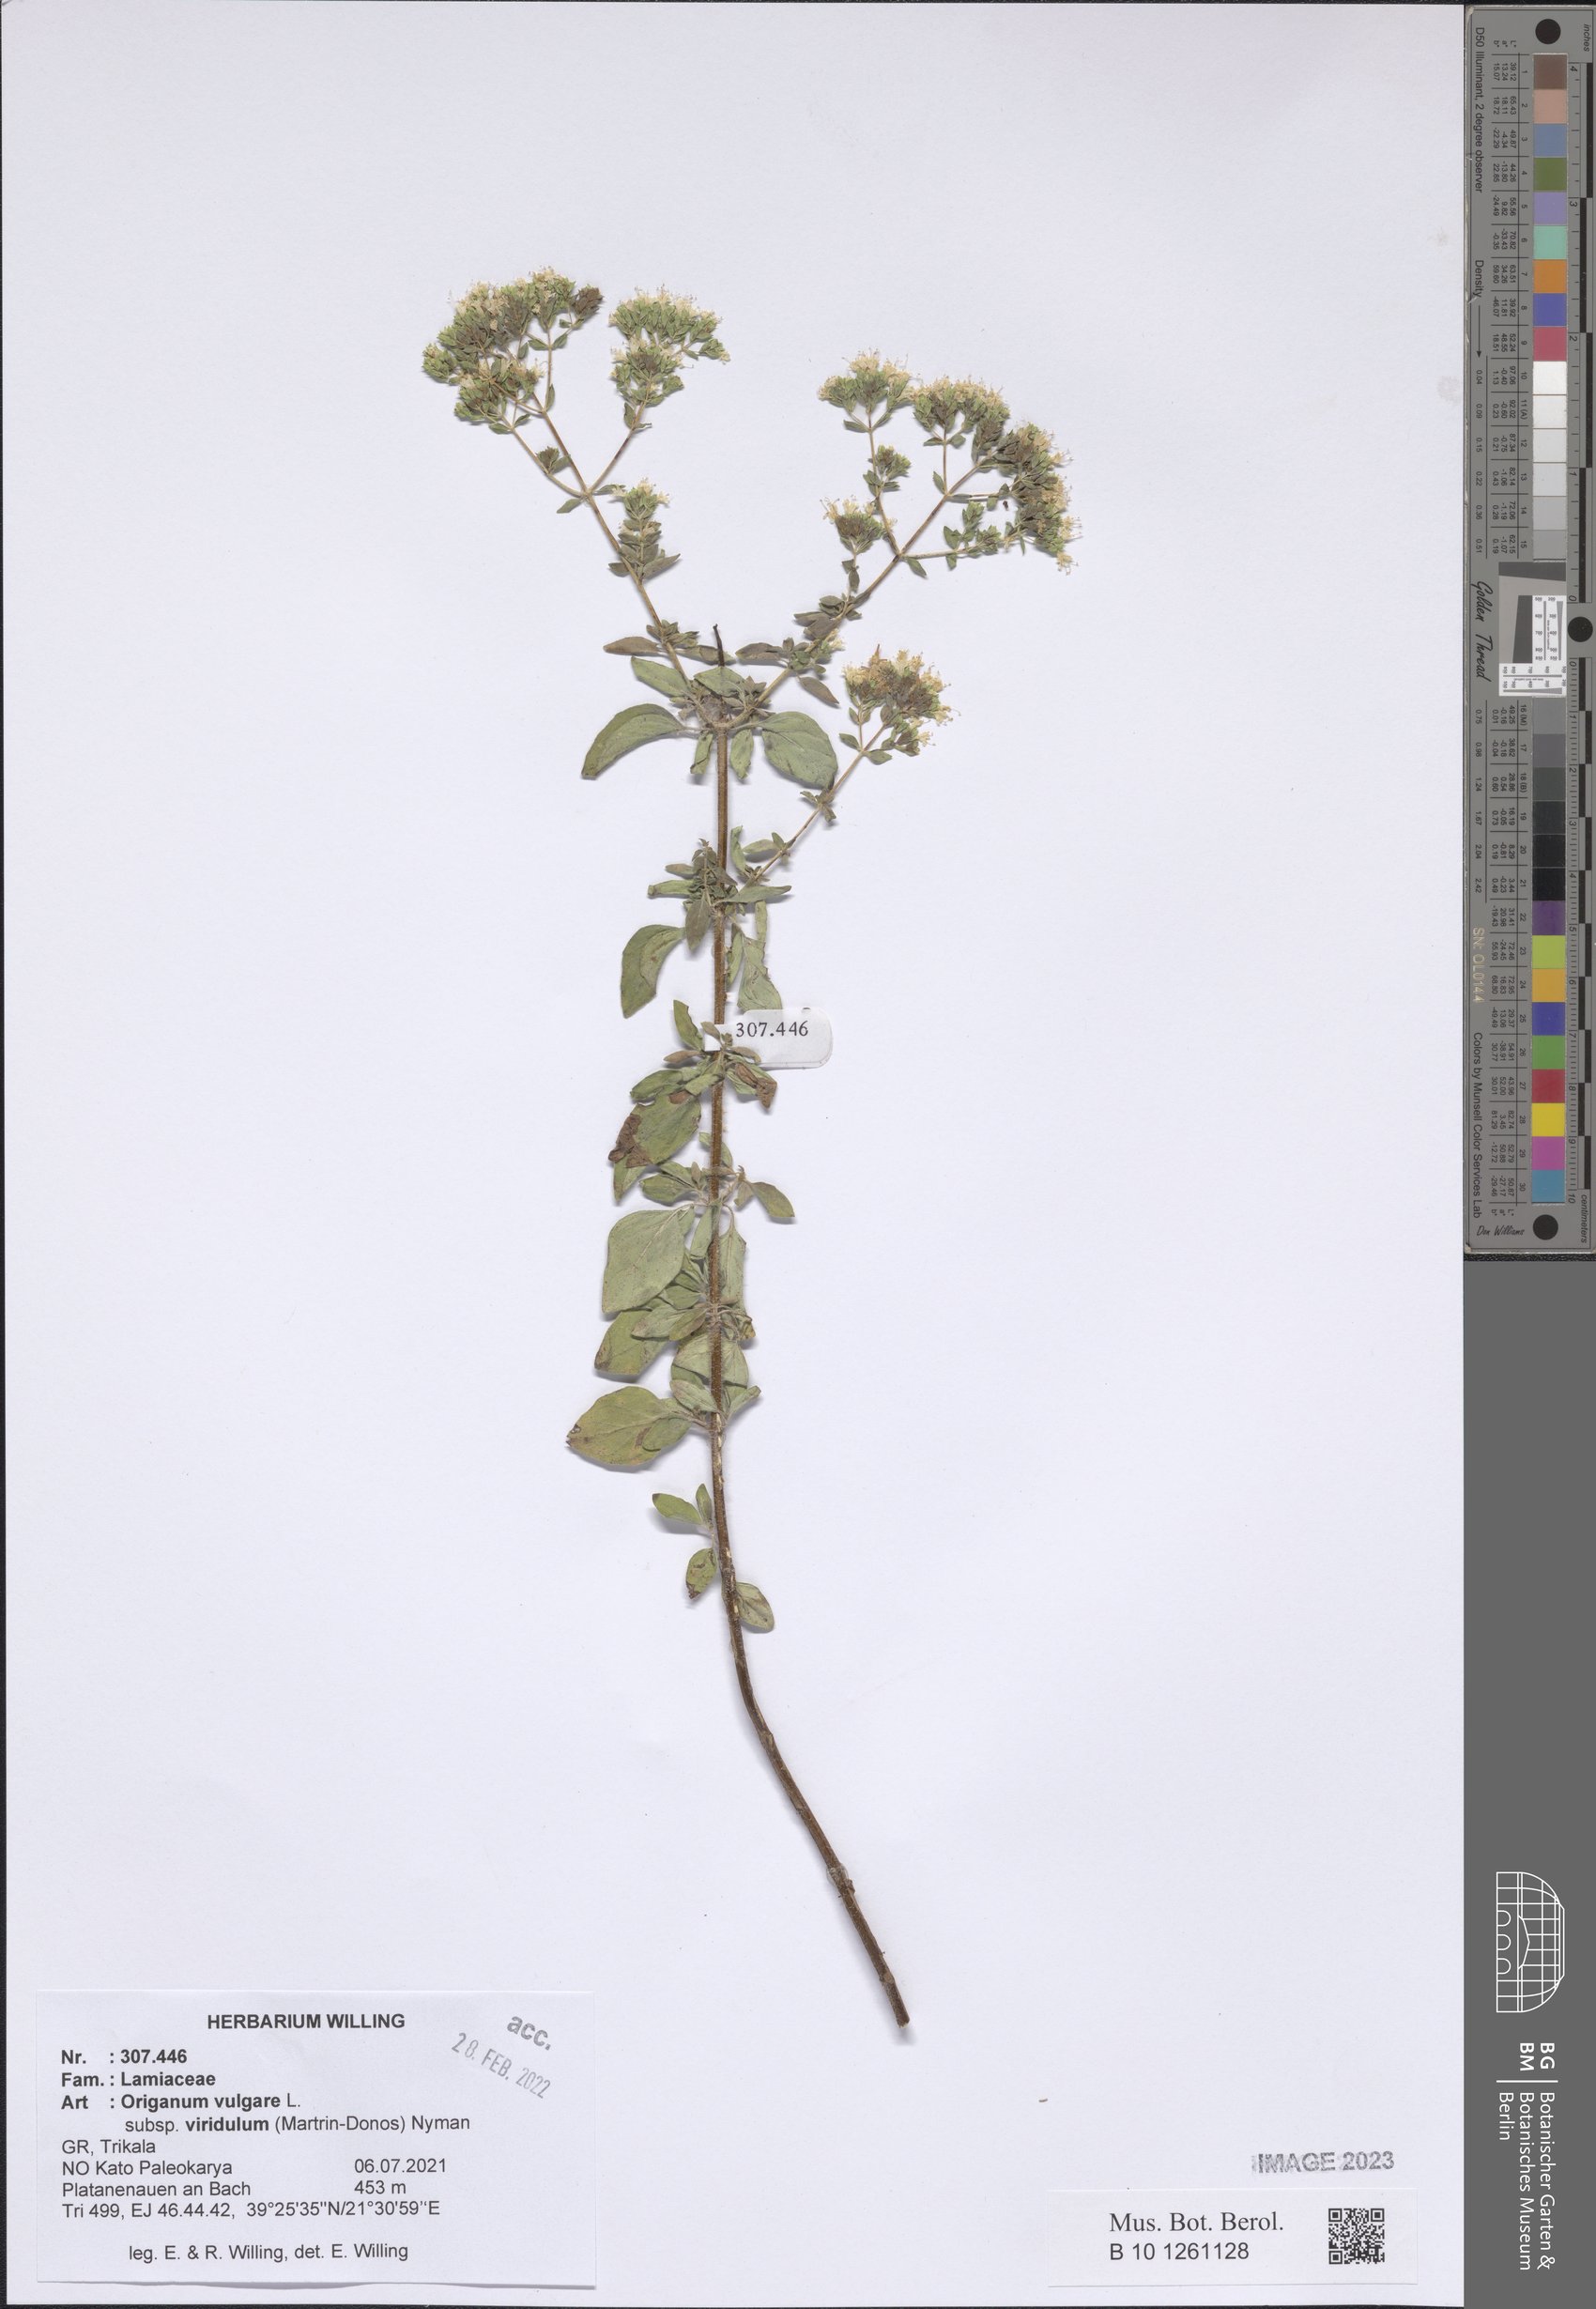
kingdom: Plantae
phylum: Tracheophyta
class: Magnoliopsida
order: Lamiales
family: Lamiaceae
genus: Origanum
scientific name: Origanum vulgare
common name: Wild marjoram
